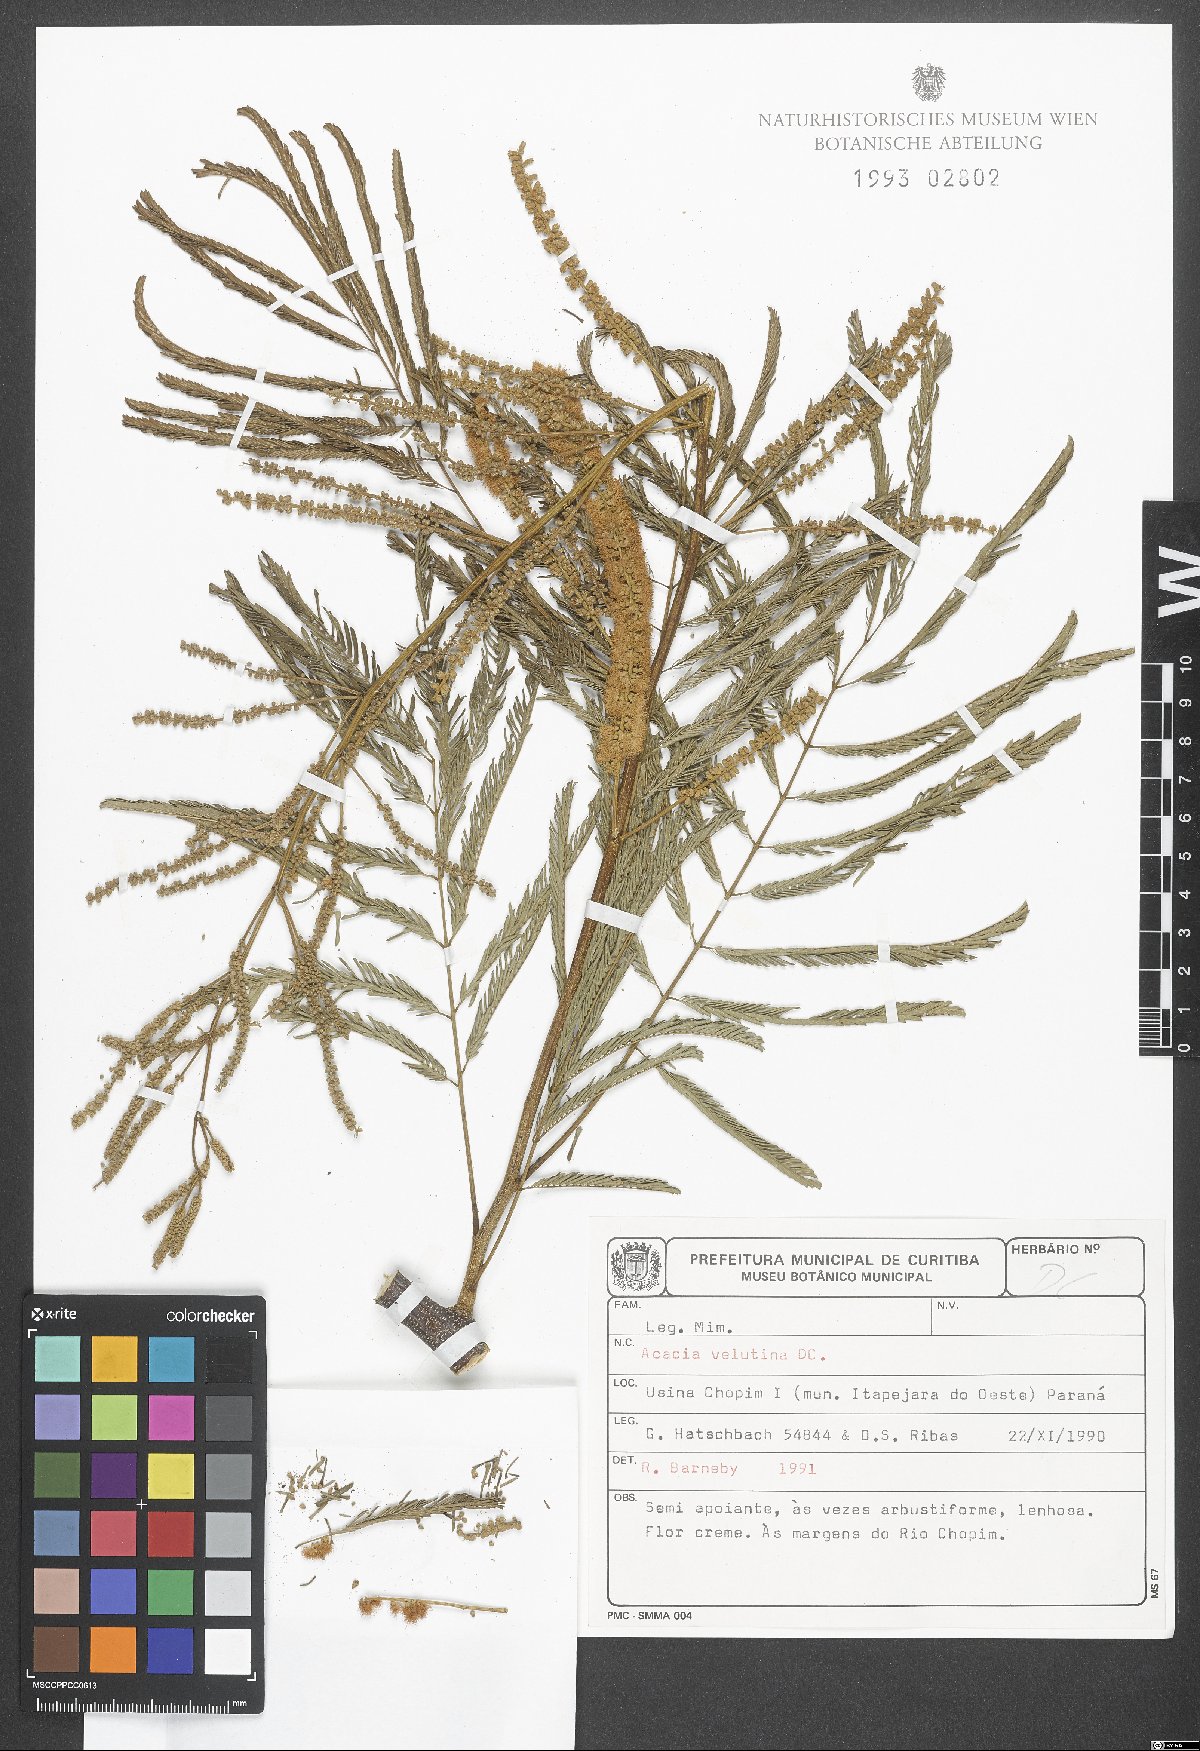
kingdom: Plantae
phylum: Tracheophyta
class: Magnoliopsida
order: Fabales
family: Fabaceae
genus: Senegalia
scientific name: Senegalia monacantha
